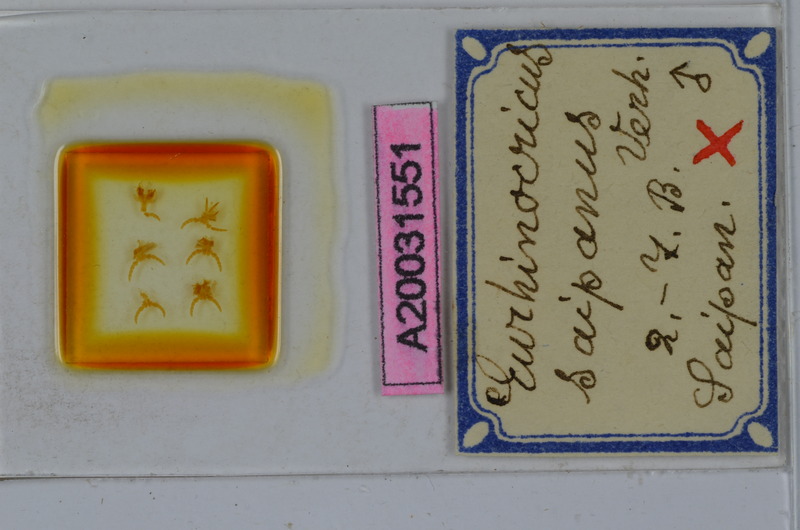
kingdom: Animalia
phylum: Arthropoda
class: Diplopoda
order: Spirobolida
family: Rhinocricidae
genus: Eurhinocricus
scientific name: Eurhinocricus
